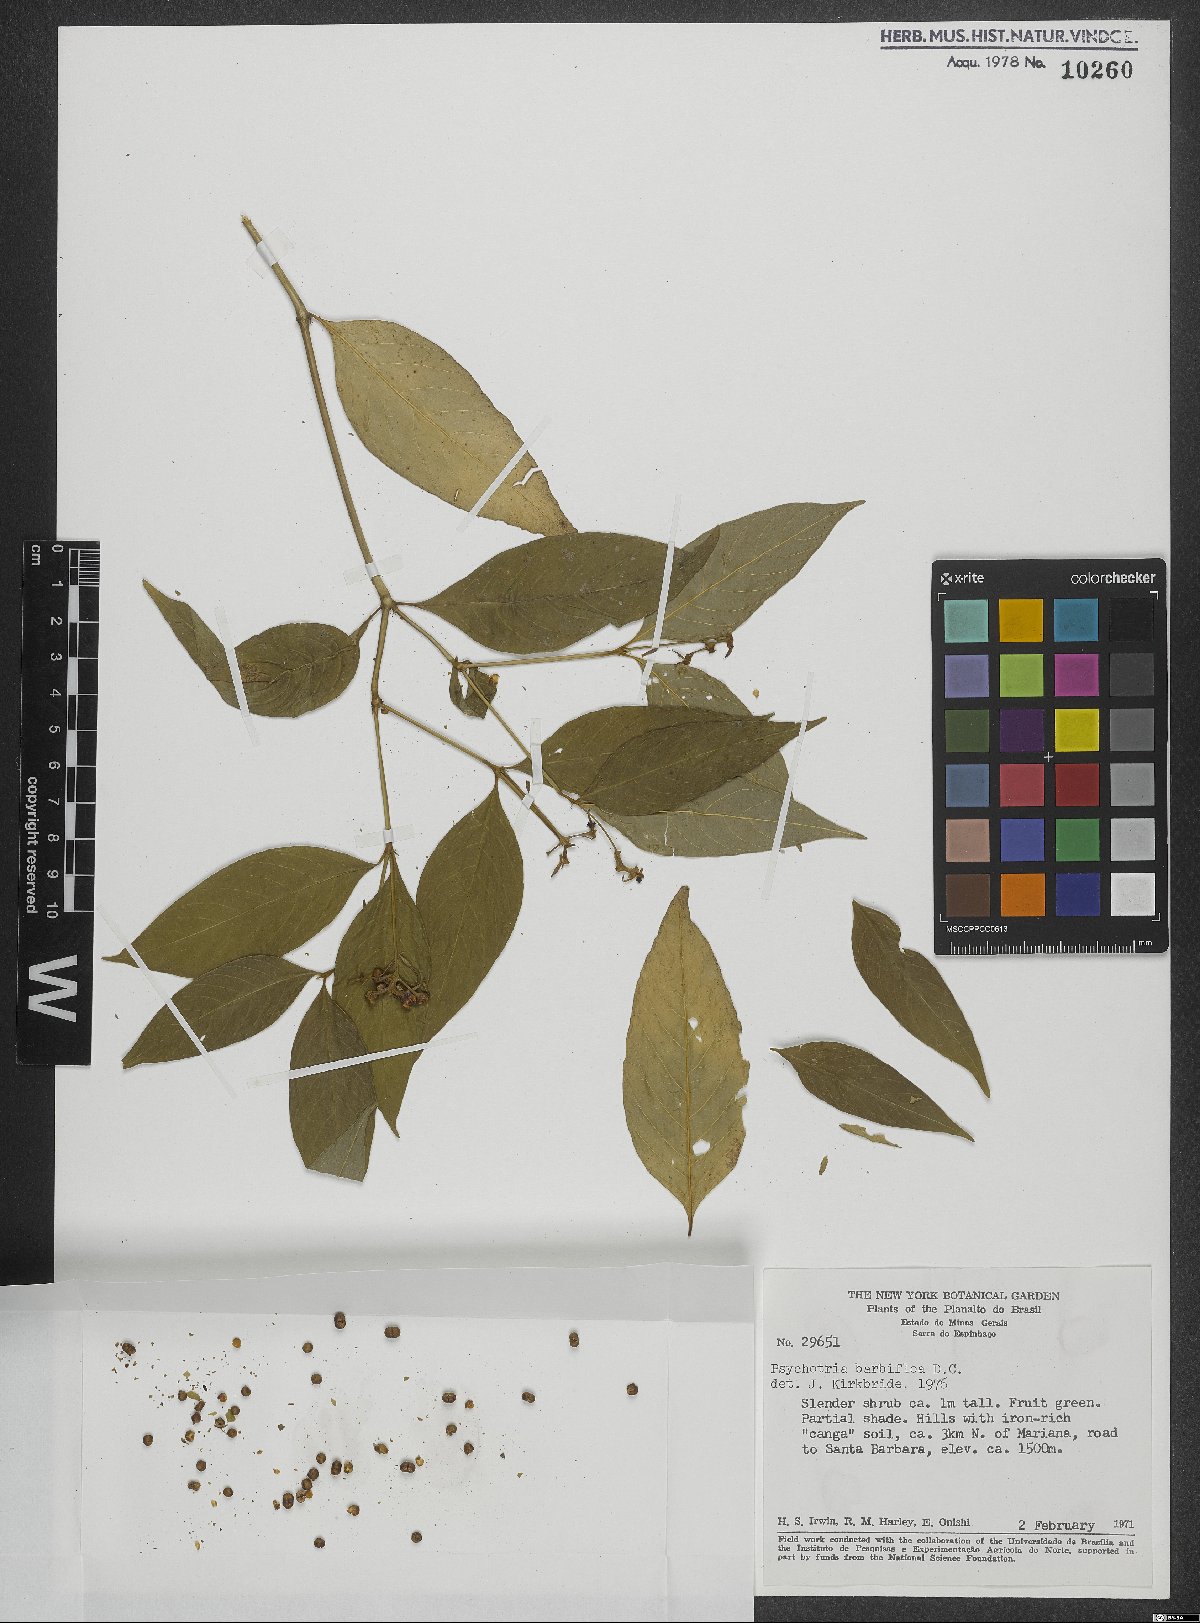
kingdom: Plantae
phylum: Tracheophyta
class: Magnoliopsida
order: Gentianales
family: Rubiaceae
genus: Palicourea
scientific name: Palicourea hoffmannseggiana
